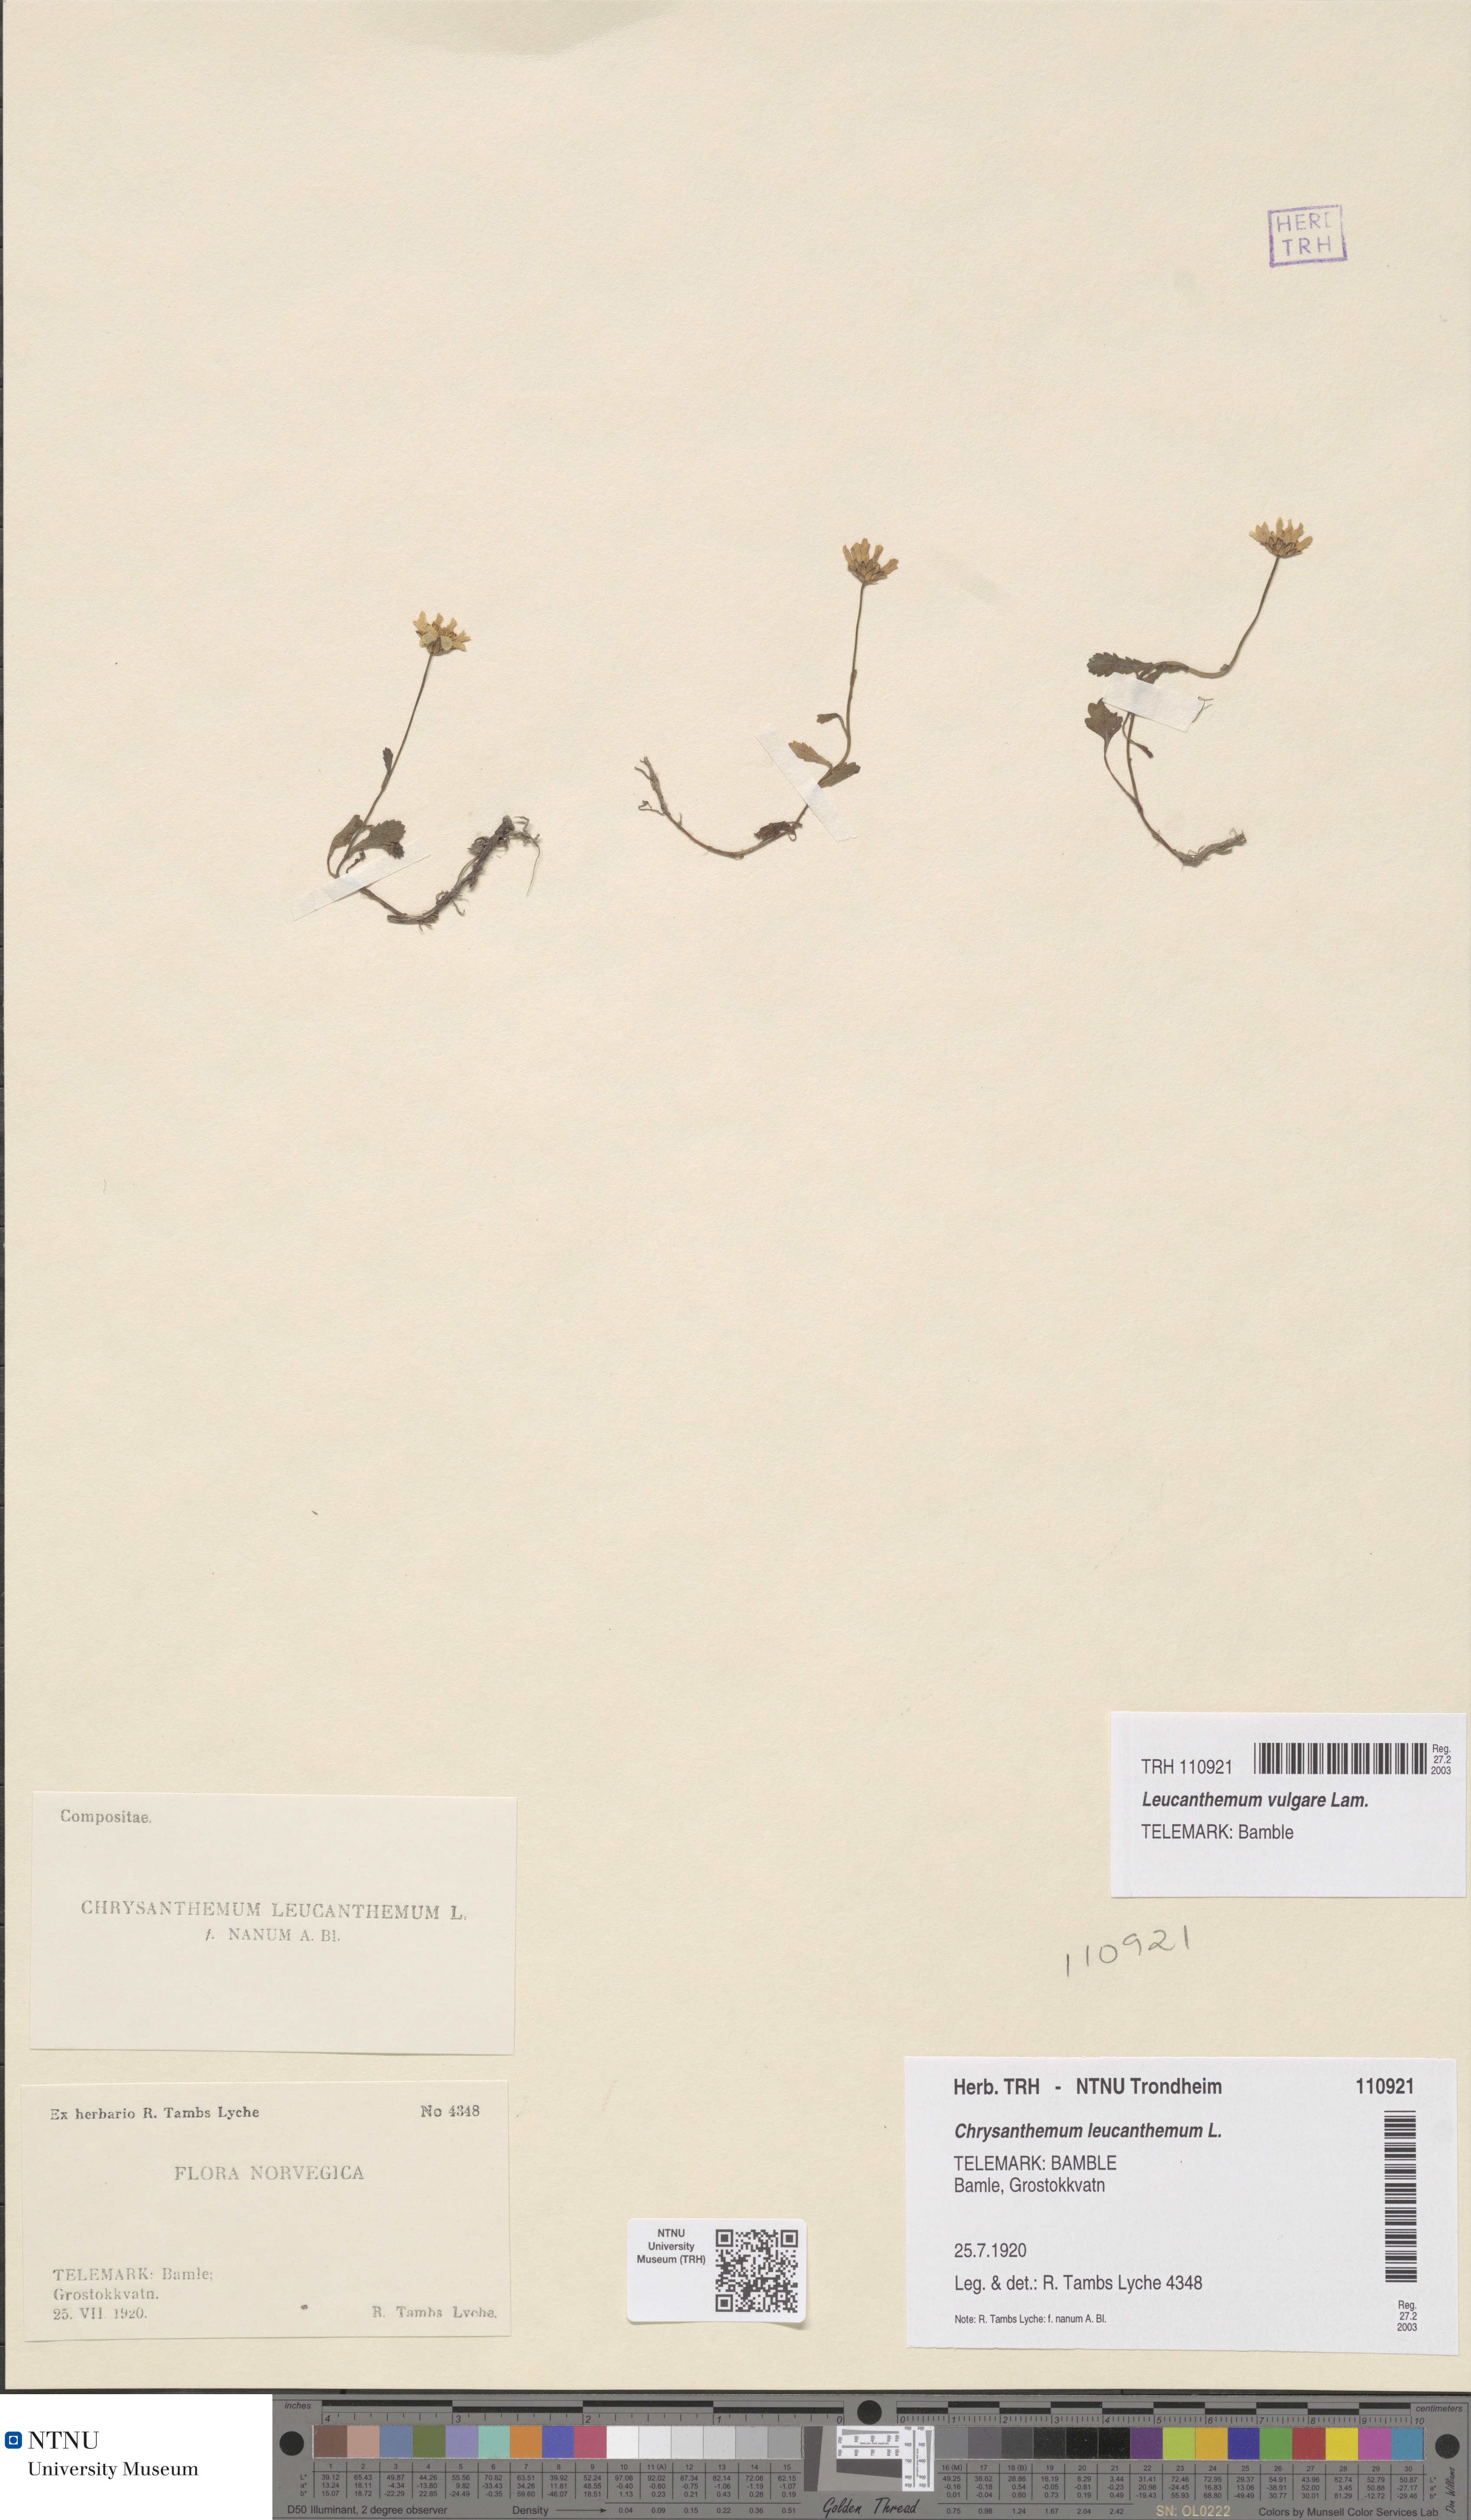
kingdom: Plantae
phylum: Tracheophyta
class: Magnoliopsida
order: Asterales
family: Asteraceae
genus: Leucanthemum
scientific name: Leucanthemum vulgare
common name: Oxeye daisy
